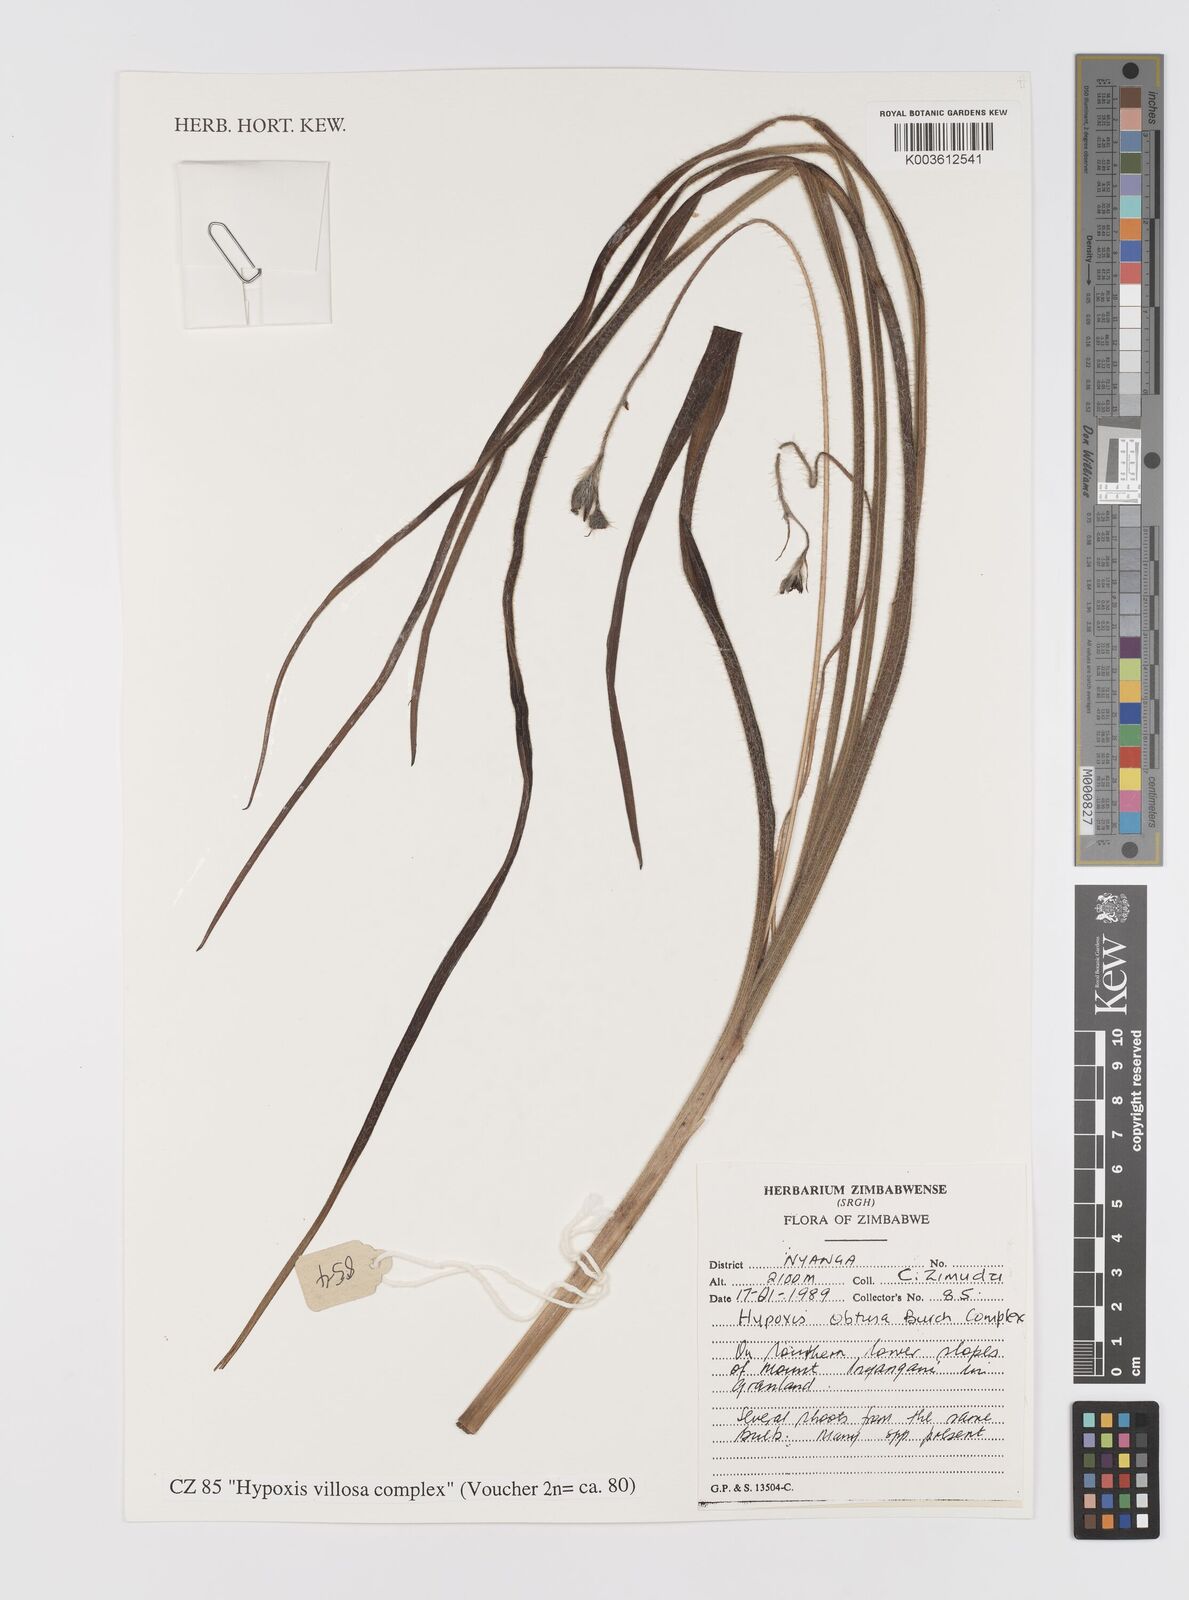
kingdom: Plantae
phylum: Tracheophyta
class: Liliopsida
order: Asparagales
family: Hypoxidaceae
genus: Hypoxis
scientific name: Hypoxis villosa
